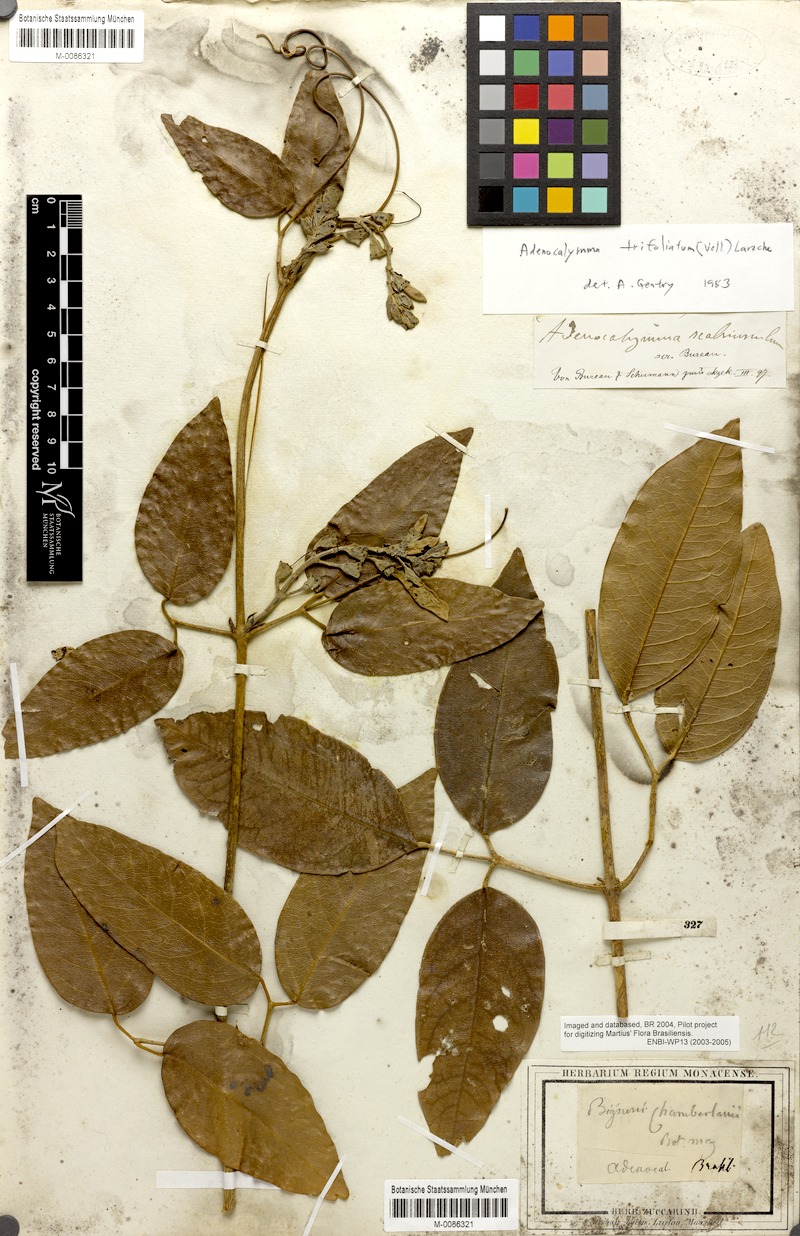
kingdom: Plantae
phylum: Tracheophyta
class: Magnoliopsida
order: Lamiales
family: Bignoniaceae
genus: Adenocalymma
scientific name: Adenocalymma trifoliatum
